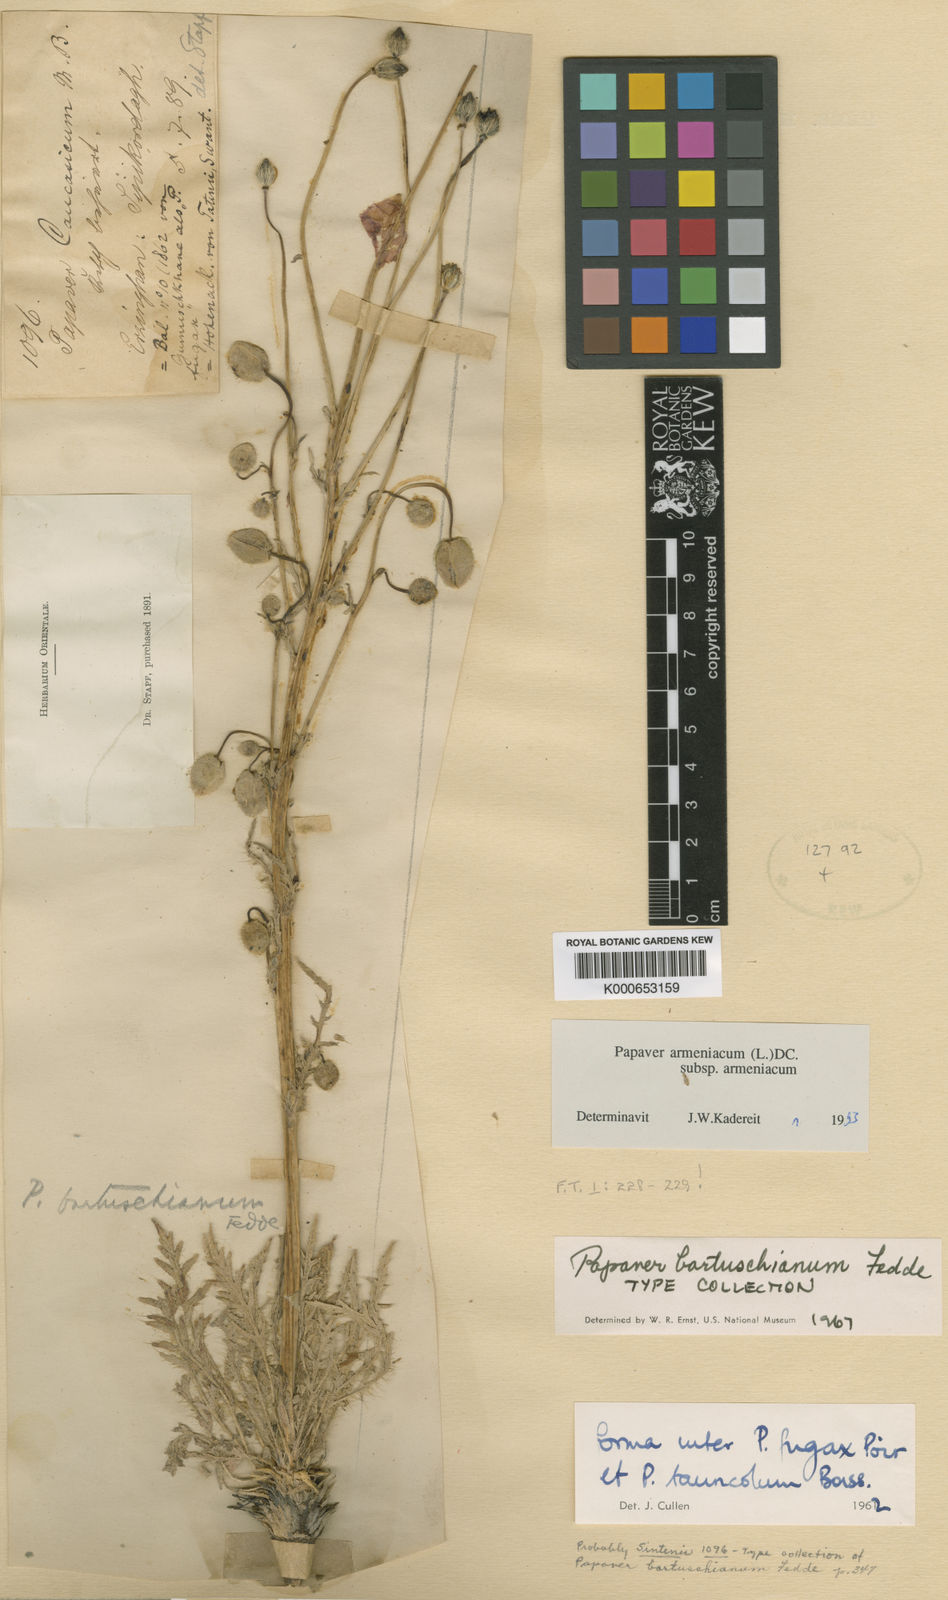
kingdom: Plantae
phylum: Tracheophyta
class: Magnoliopsida
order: Ranunculales
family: Papaveraceae
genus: Papaver
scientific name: Papaver
